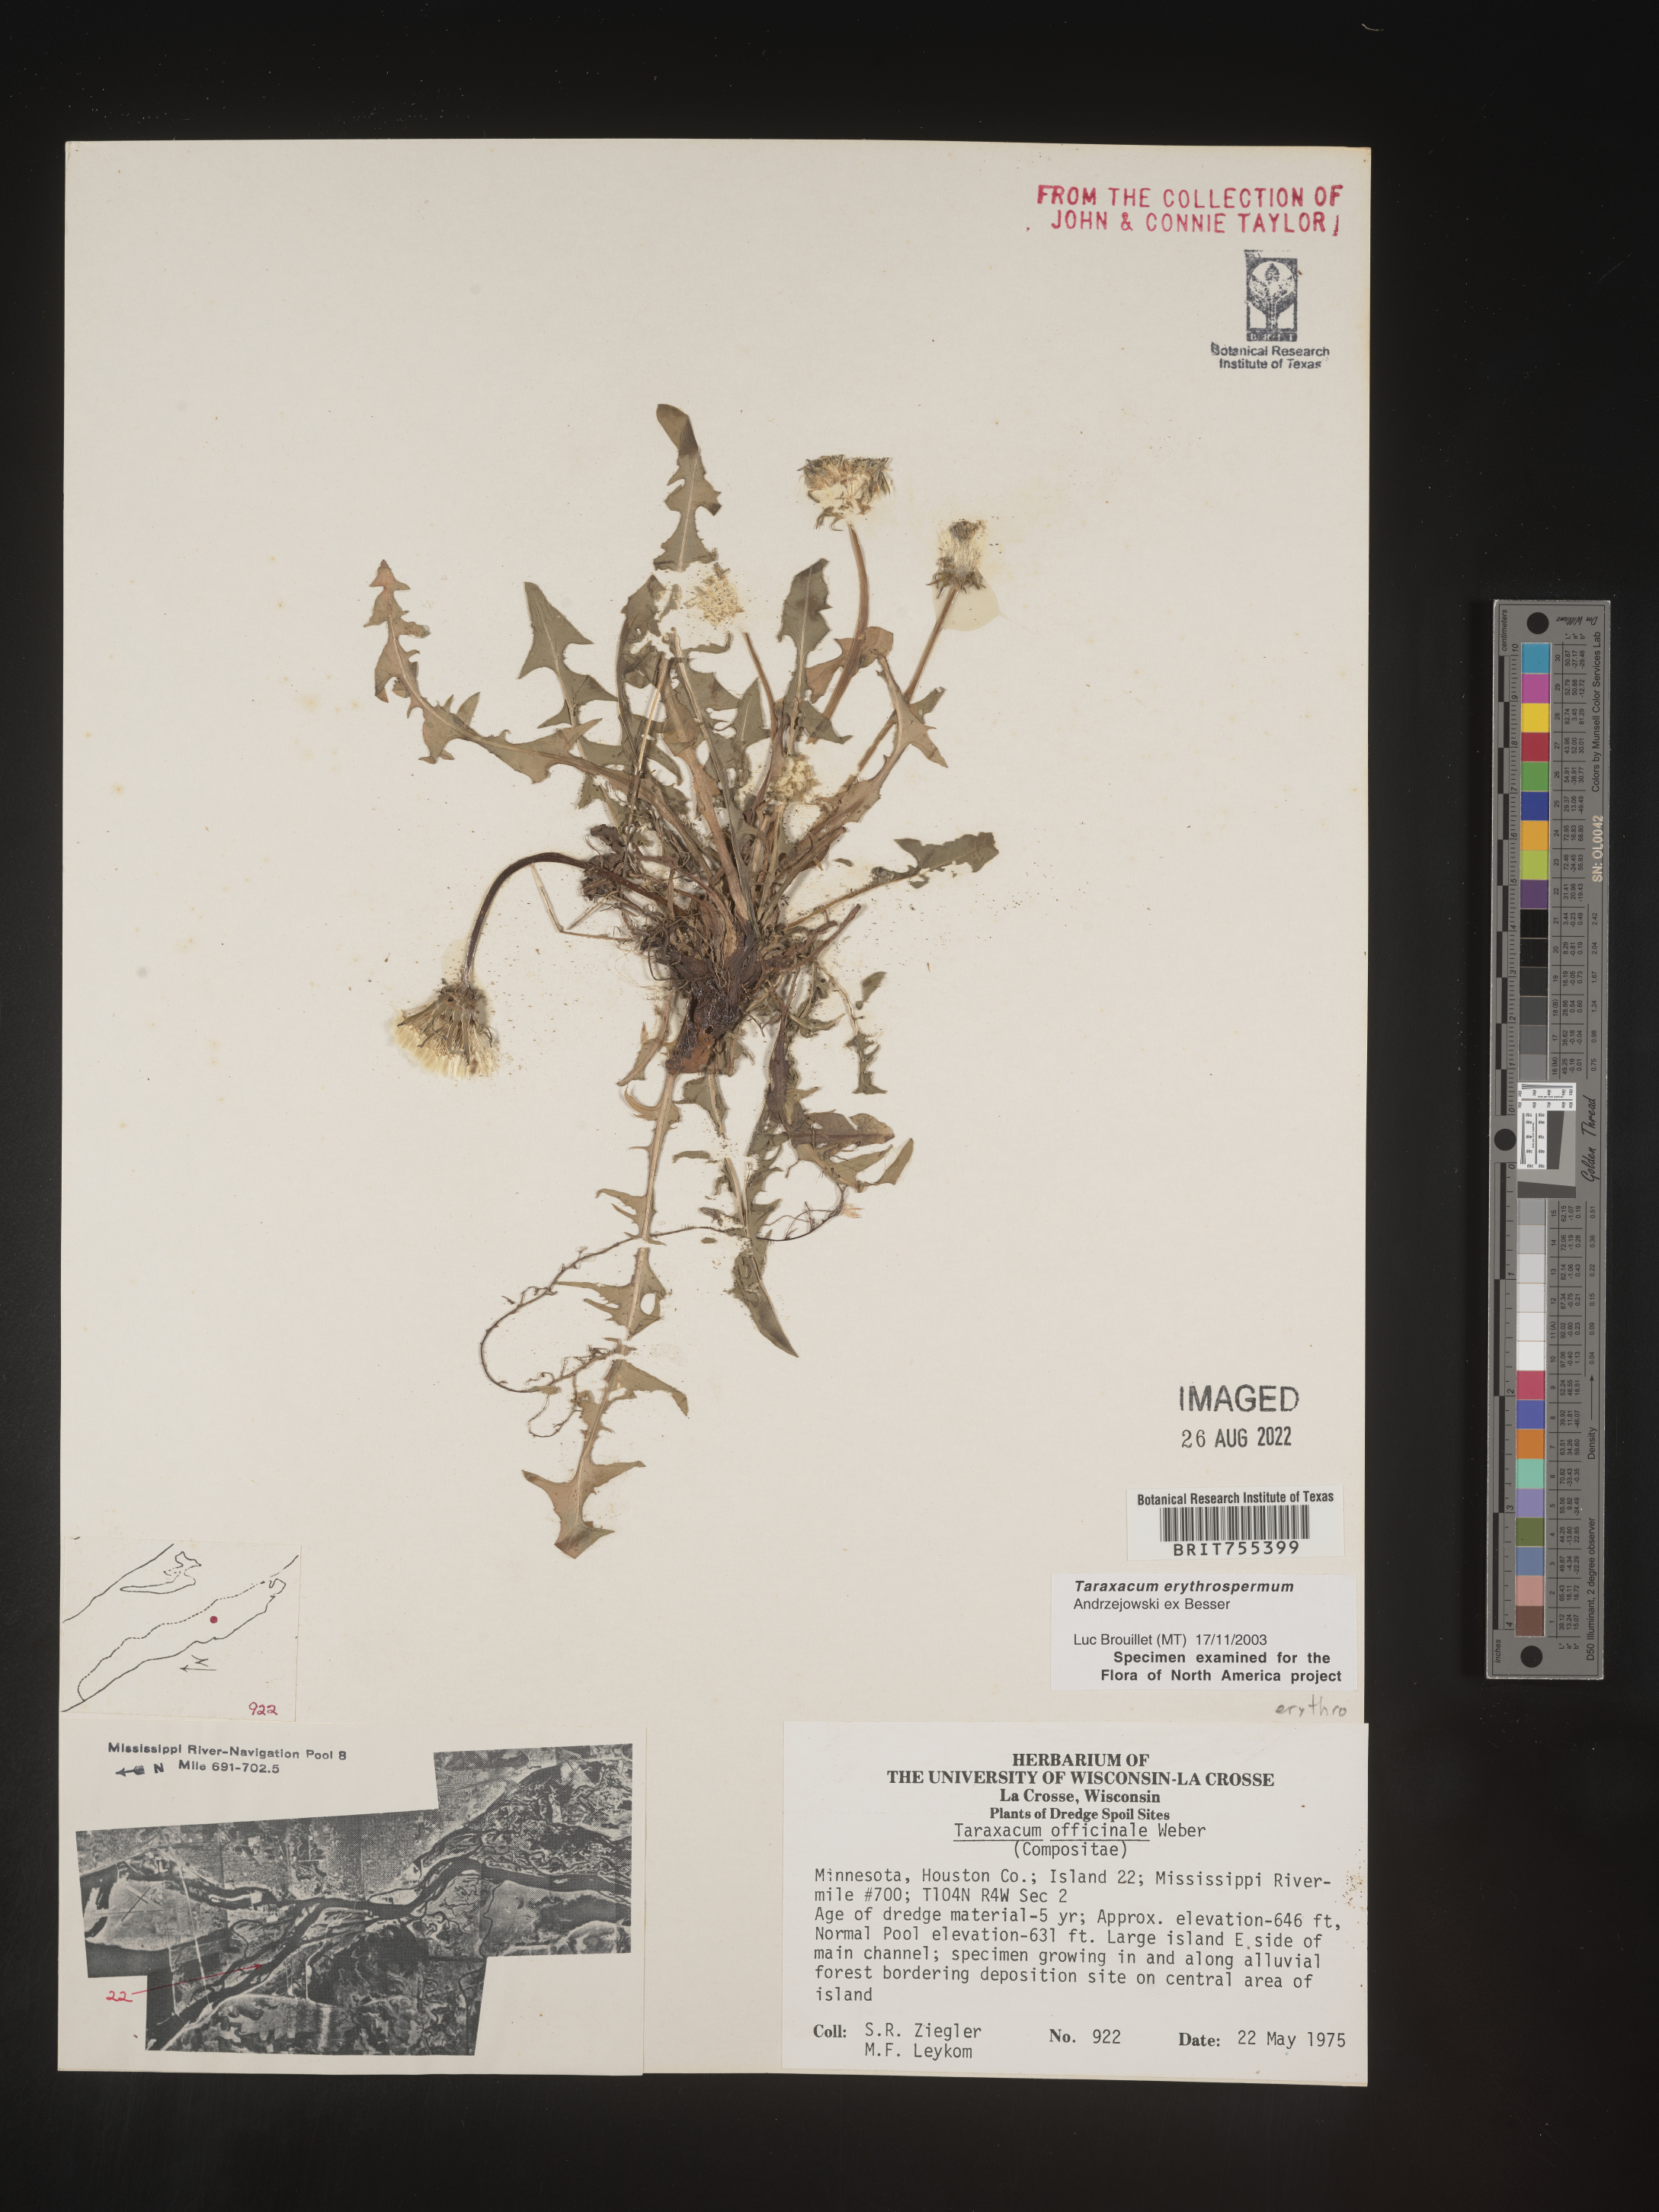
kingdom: Plantae
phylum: Tracheophyta
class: Magnoliopsida
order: Asterales
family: Asteraceae
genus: Taraxacum
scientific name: Taraxacum erythrospermum
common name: Rock dandelion
